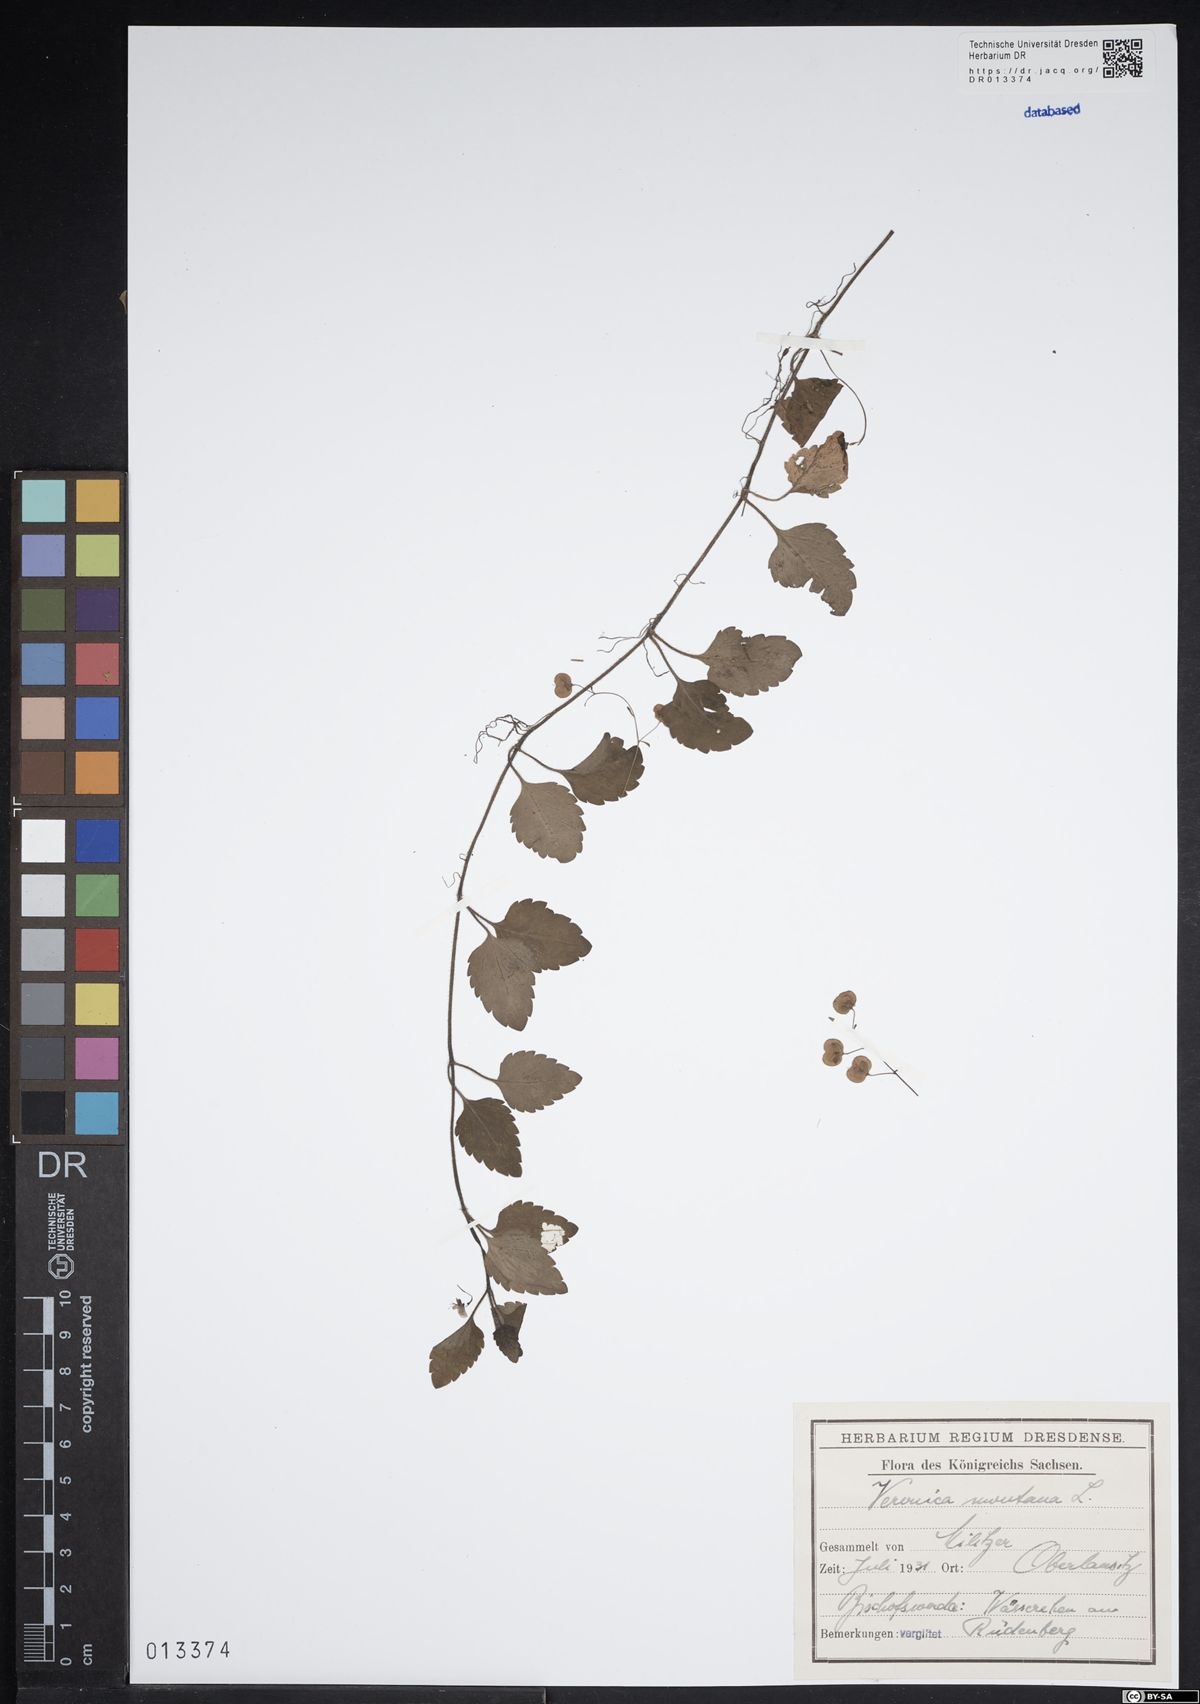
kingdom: Plantae
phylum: Tracheophyta
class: Magnoliopsida
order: Lamiales
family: Plantaginaceae
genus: Veronica
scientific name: Veronica montana
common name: Wood speedwell
